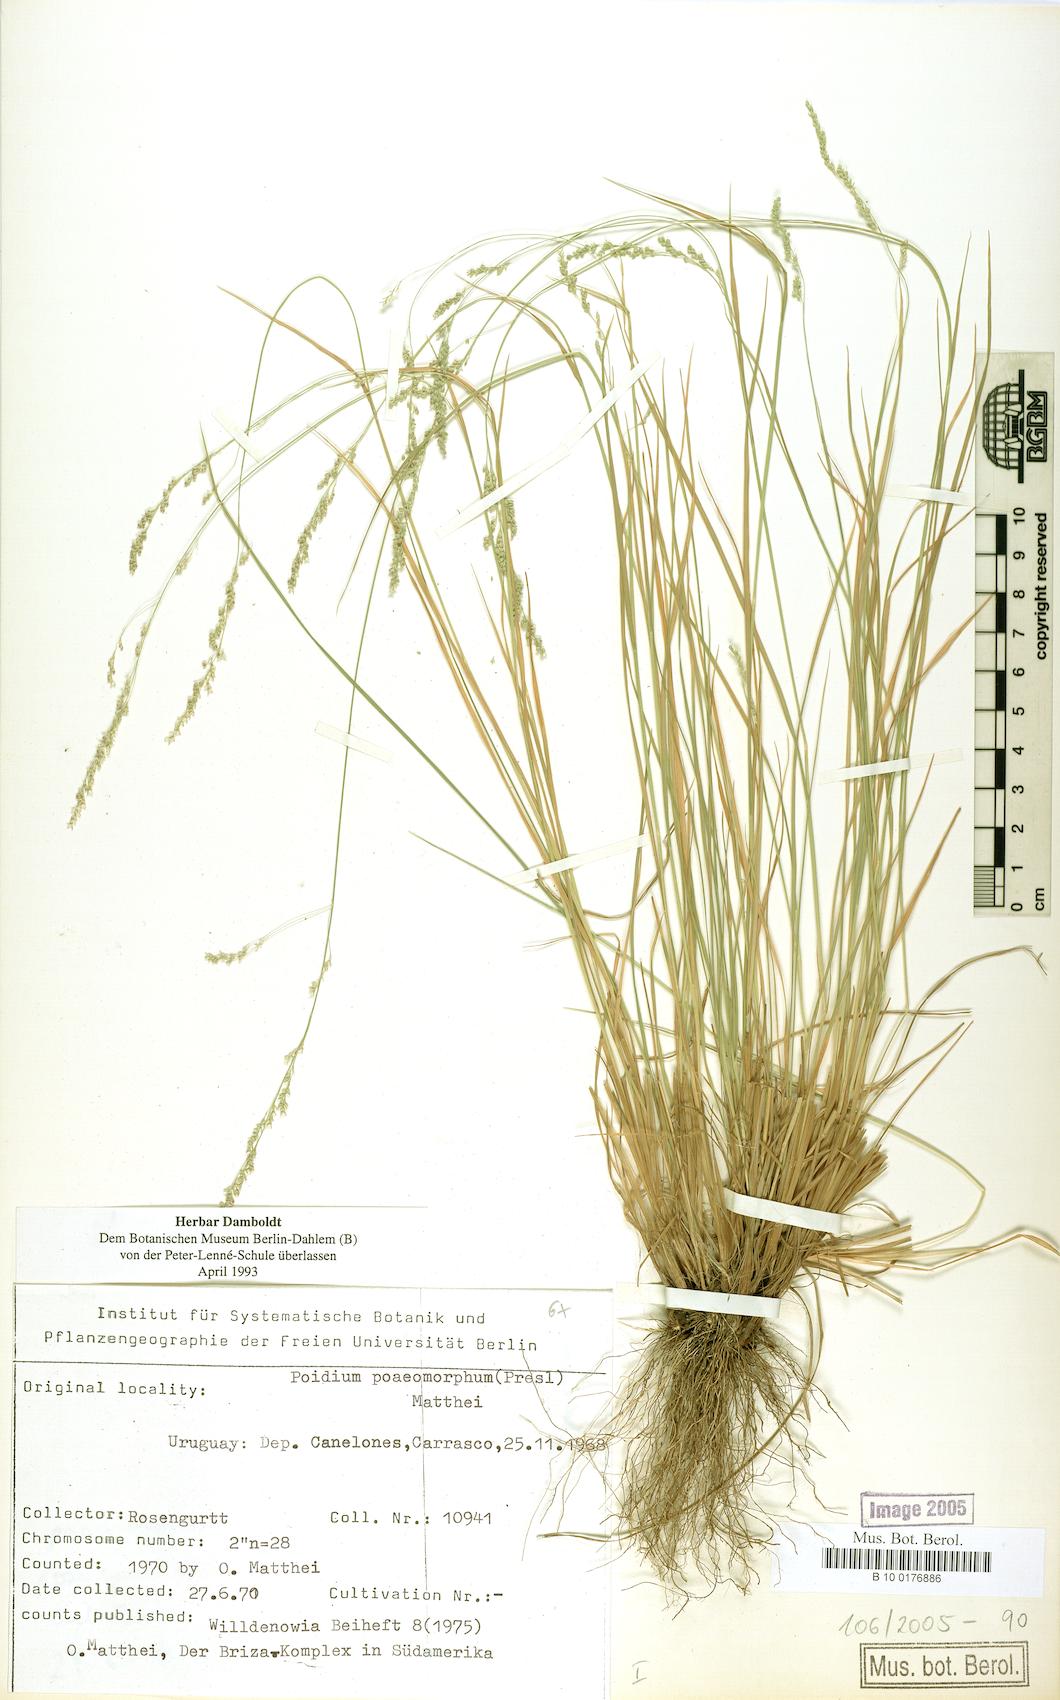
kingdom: Plantae
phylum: Tracheophyta
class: Liliopsida
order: Poales
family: Poaceae
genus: Chascolytrum
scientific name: Chascolytrum poomorphum
